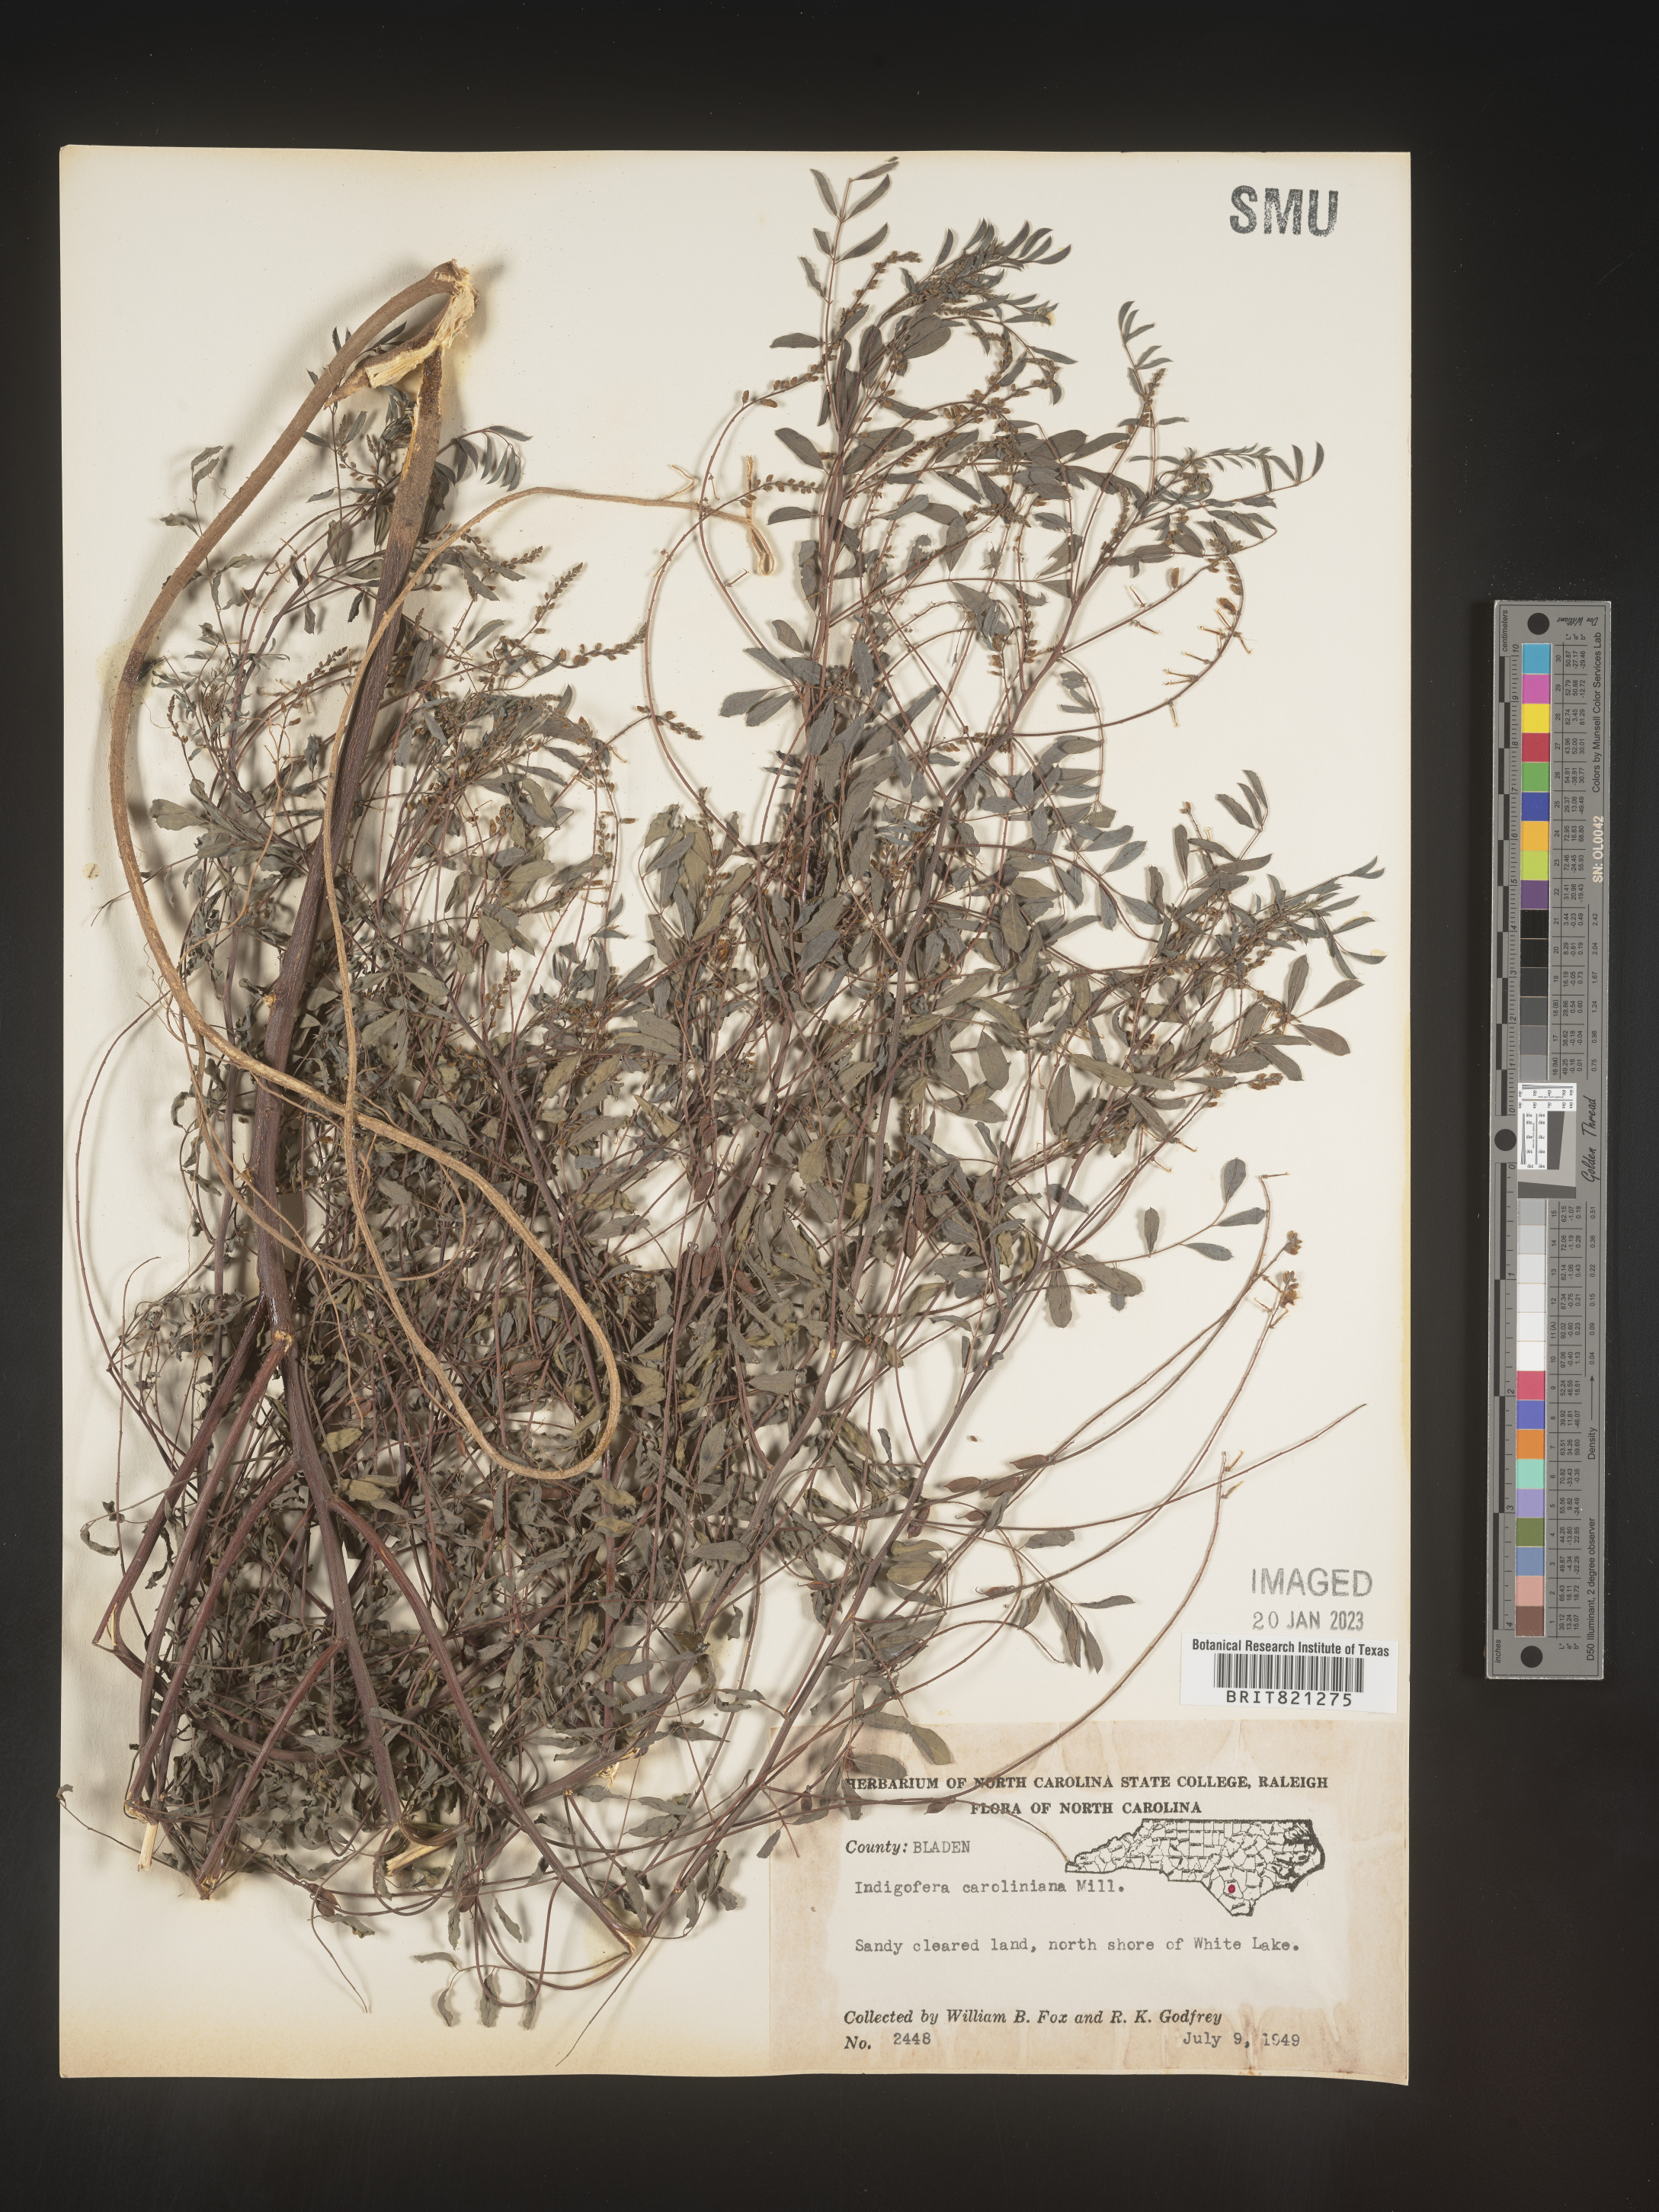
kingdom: Plantae
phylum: Tracheophyta
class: Magnoliopsida
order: Fabales
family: Fabaceae
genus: Indigofera
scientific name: Indigofera
